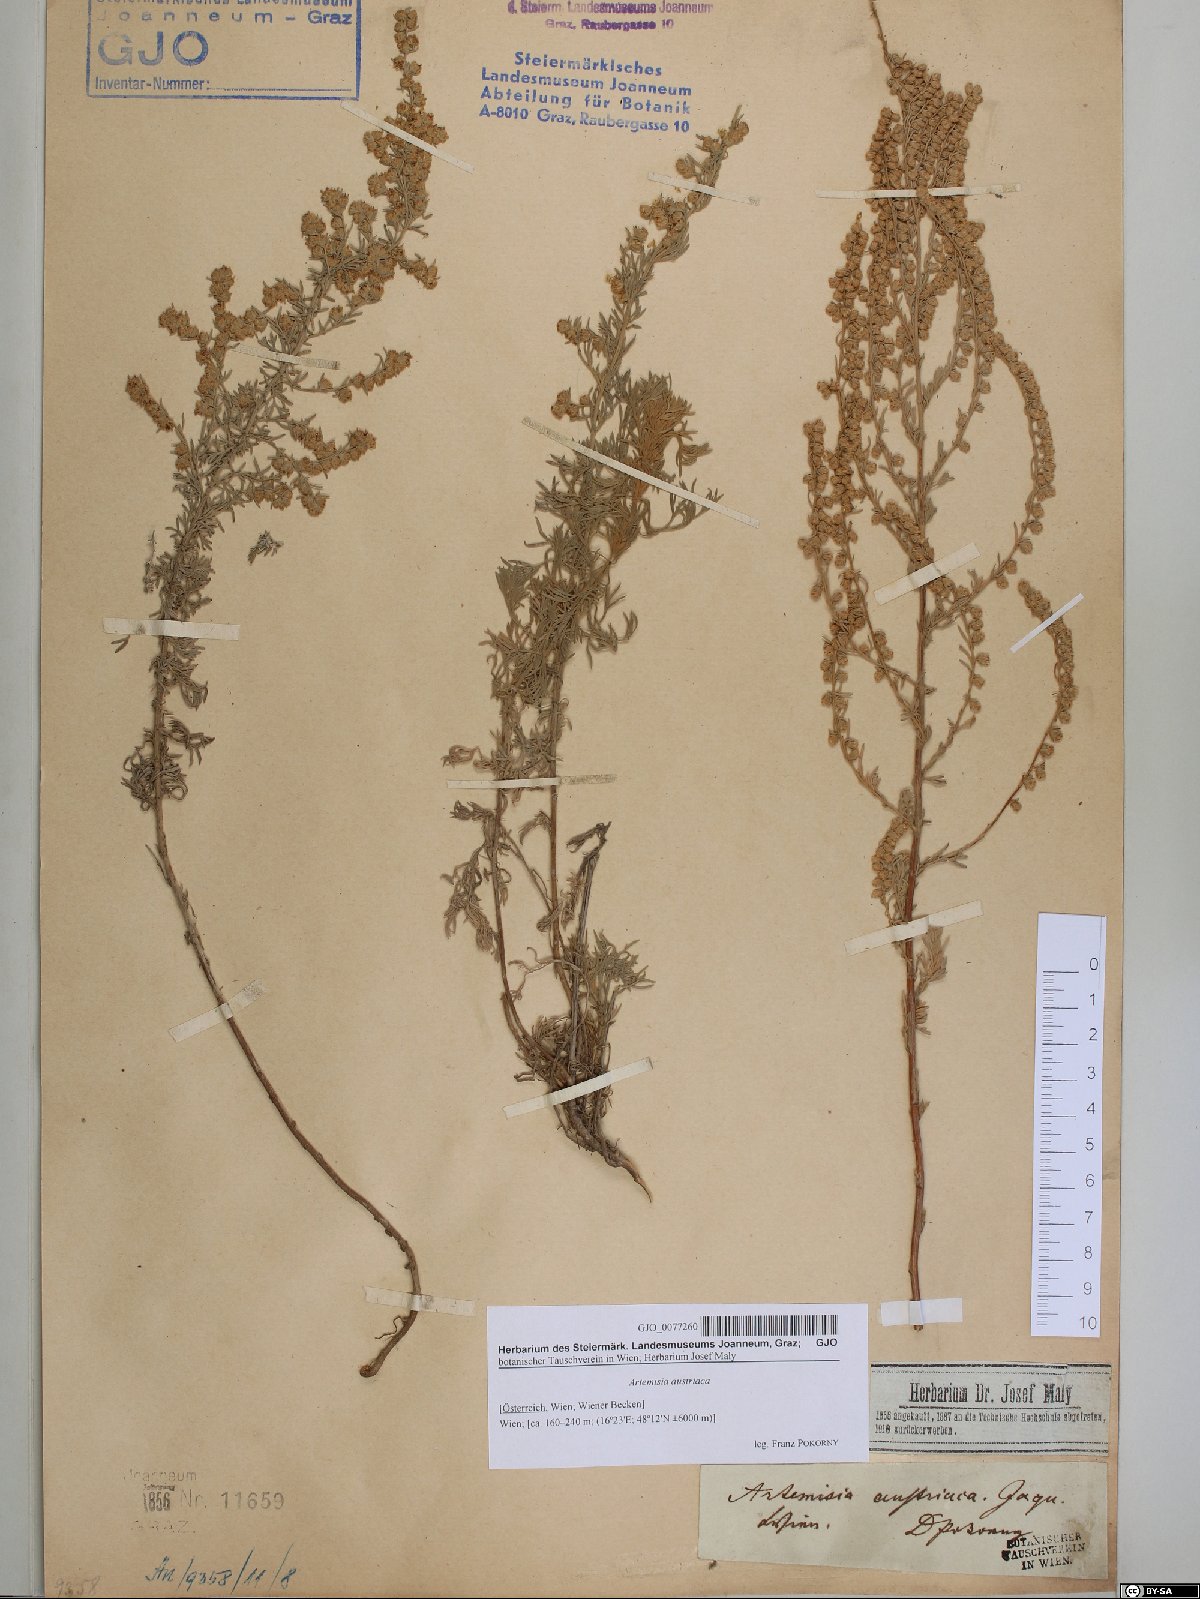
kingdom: Plantae
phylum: Tracheophyta
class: Magnoliopsida
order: Asterales
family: Asteraceae
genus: Artemisia
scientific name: Artemisia austriaca
